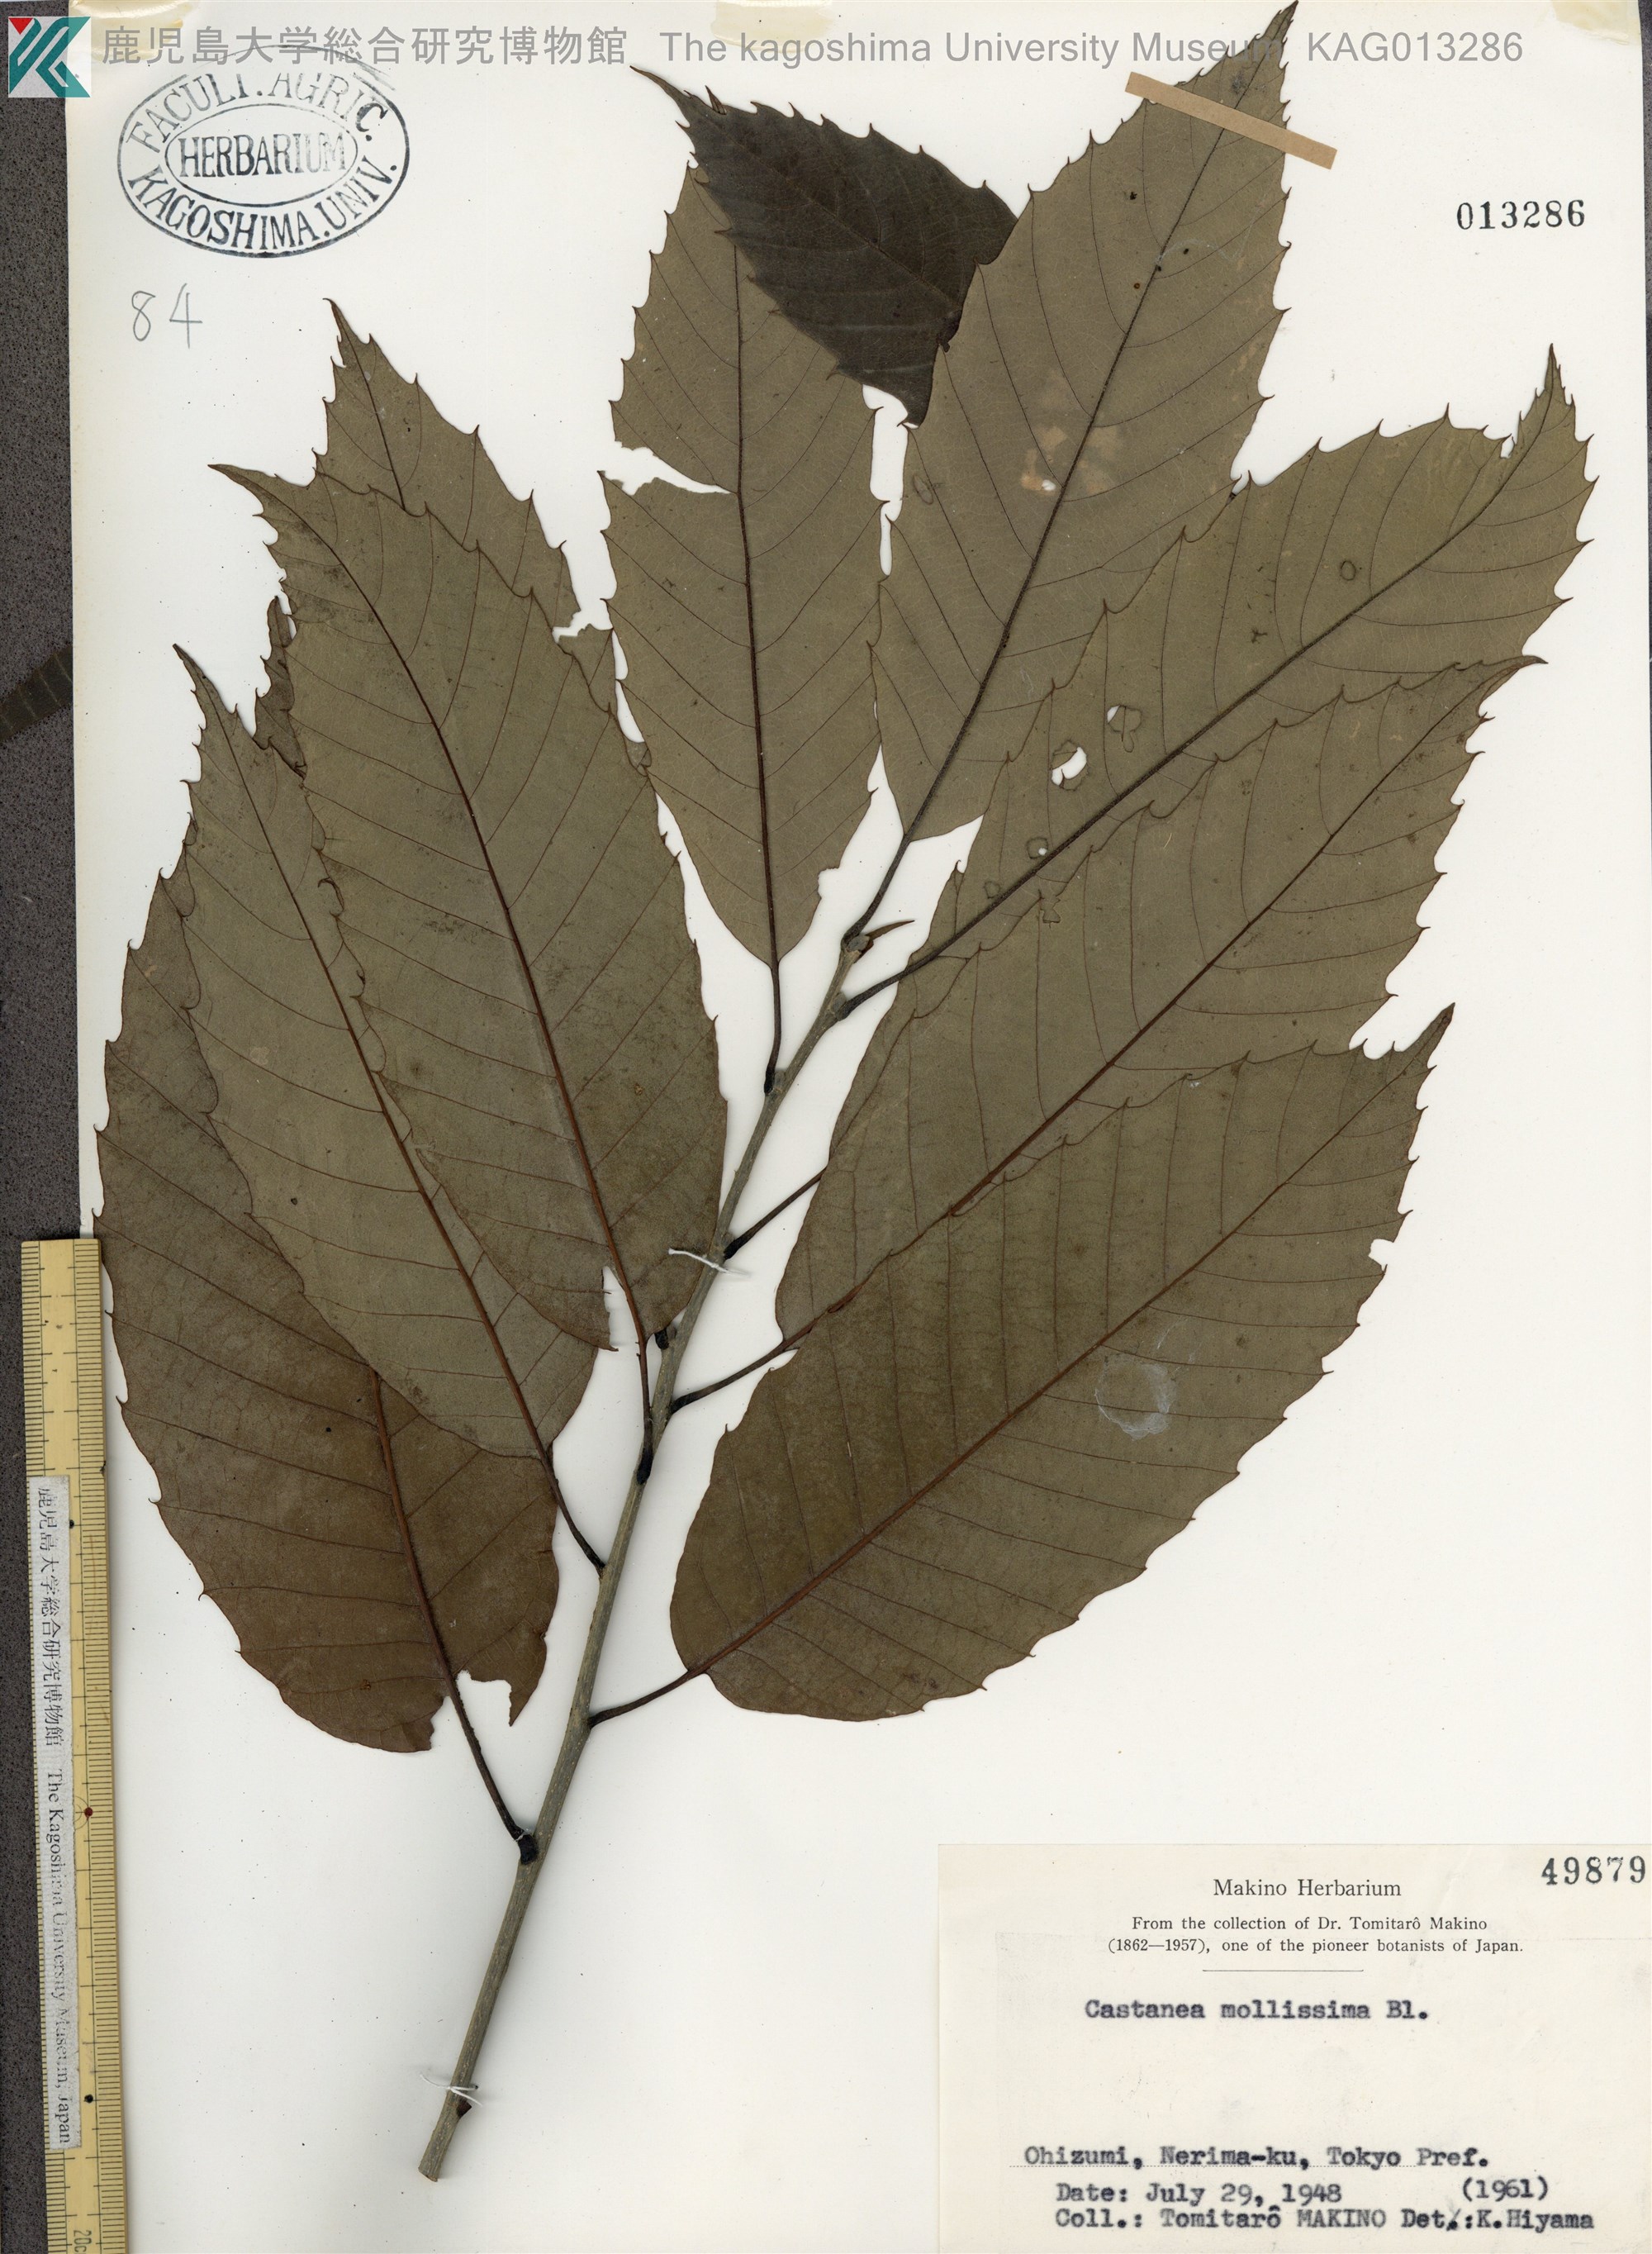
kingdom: Plantae
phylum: Tracheophyta
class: Magnoliopsida
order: Fagales
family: Fagaceae
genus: Castanea
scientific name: Castanea mollissima
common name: Chinese chestnut
